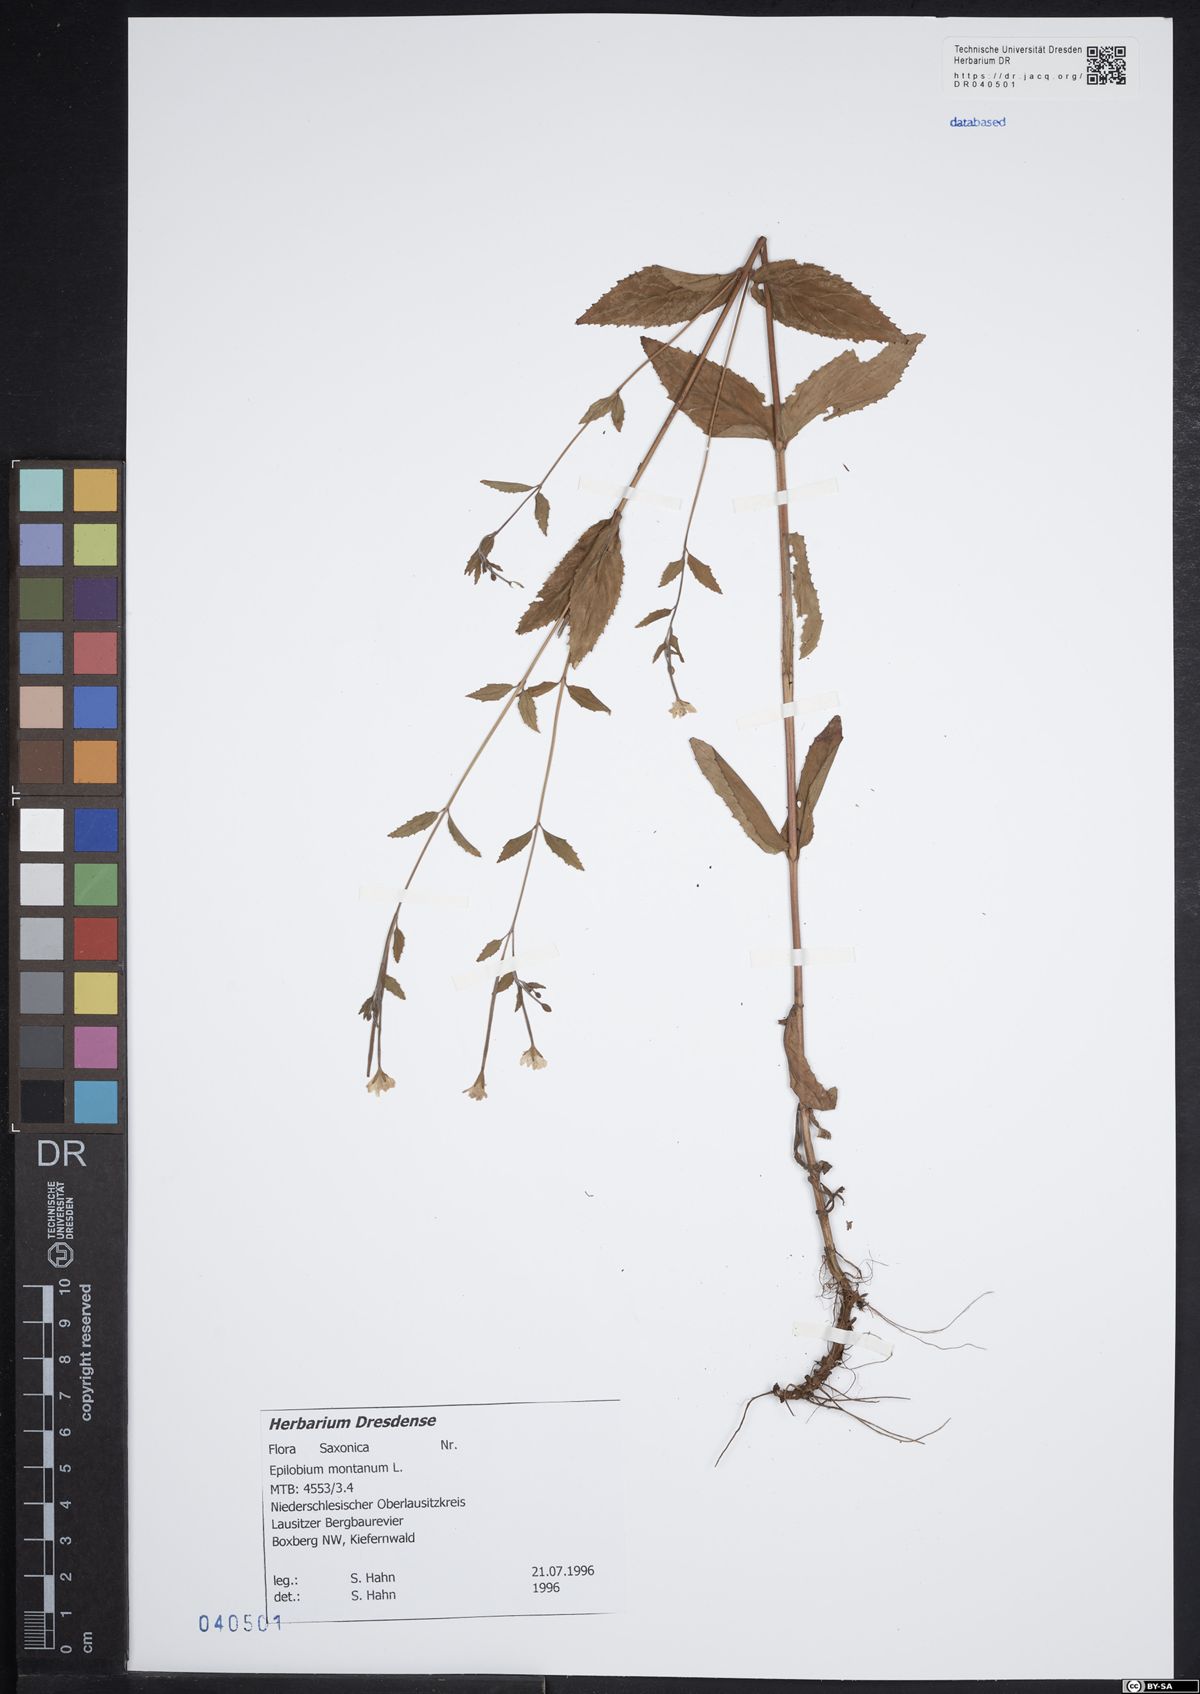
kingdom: Plantae
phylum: Tracheophyta
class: Magnoliopsida
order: Myrtales
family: Onagraceae
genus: Epilobium
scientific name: Epilobium montanum
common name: Broad-leaved willowherb
